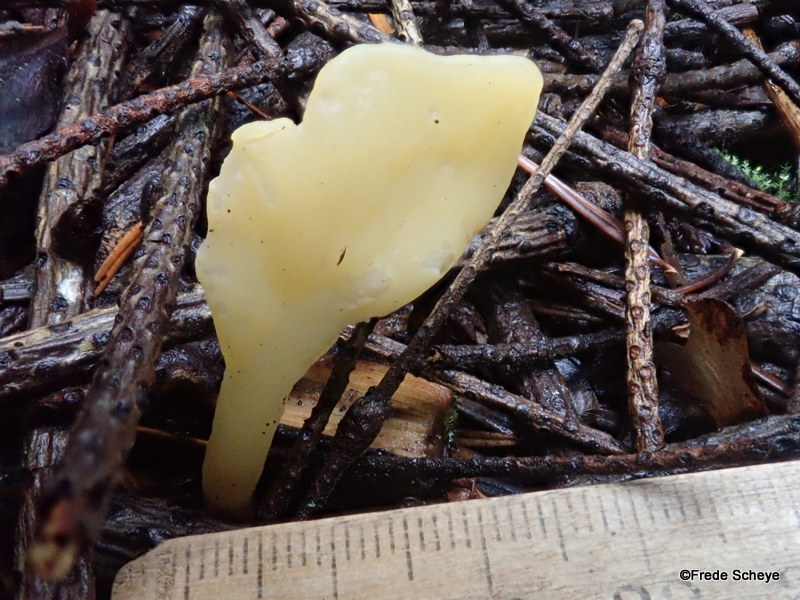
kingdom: Fungi
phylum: Ascomycota
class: Leotiomycetes
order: Rhytismatales
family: Cudoniaceae
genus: Spathularia
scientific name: Spathularia flavida
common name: gul spatelsvamp
